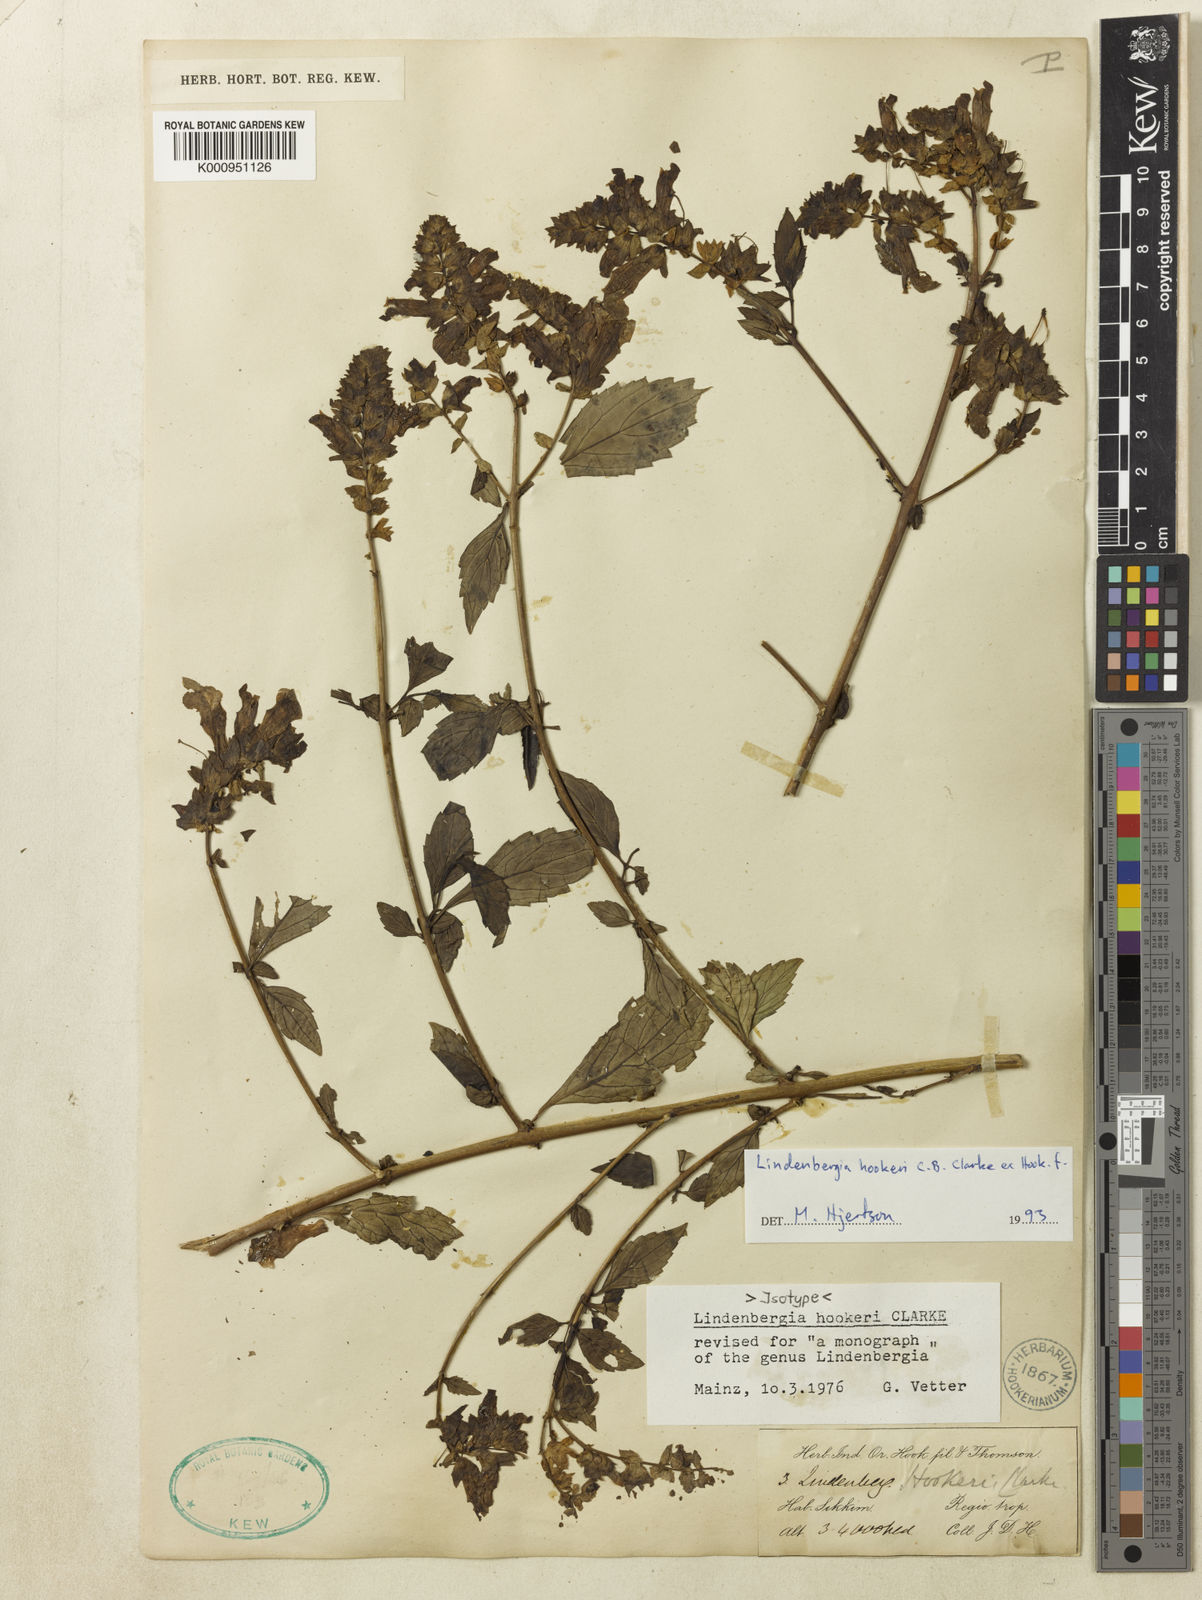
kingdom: Plantae
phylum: Tracheophyta
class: Magnoliopsida
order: Lamiales
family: Orobanchaceae
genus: Lindenbergia
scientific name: Lindenbergia hookeri
